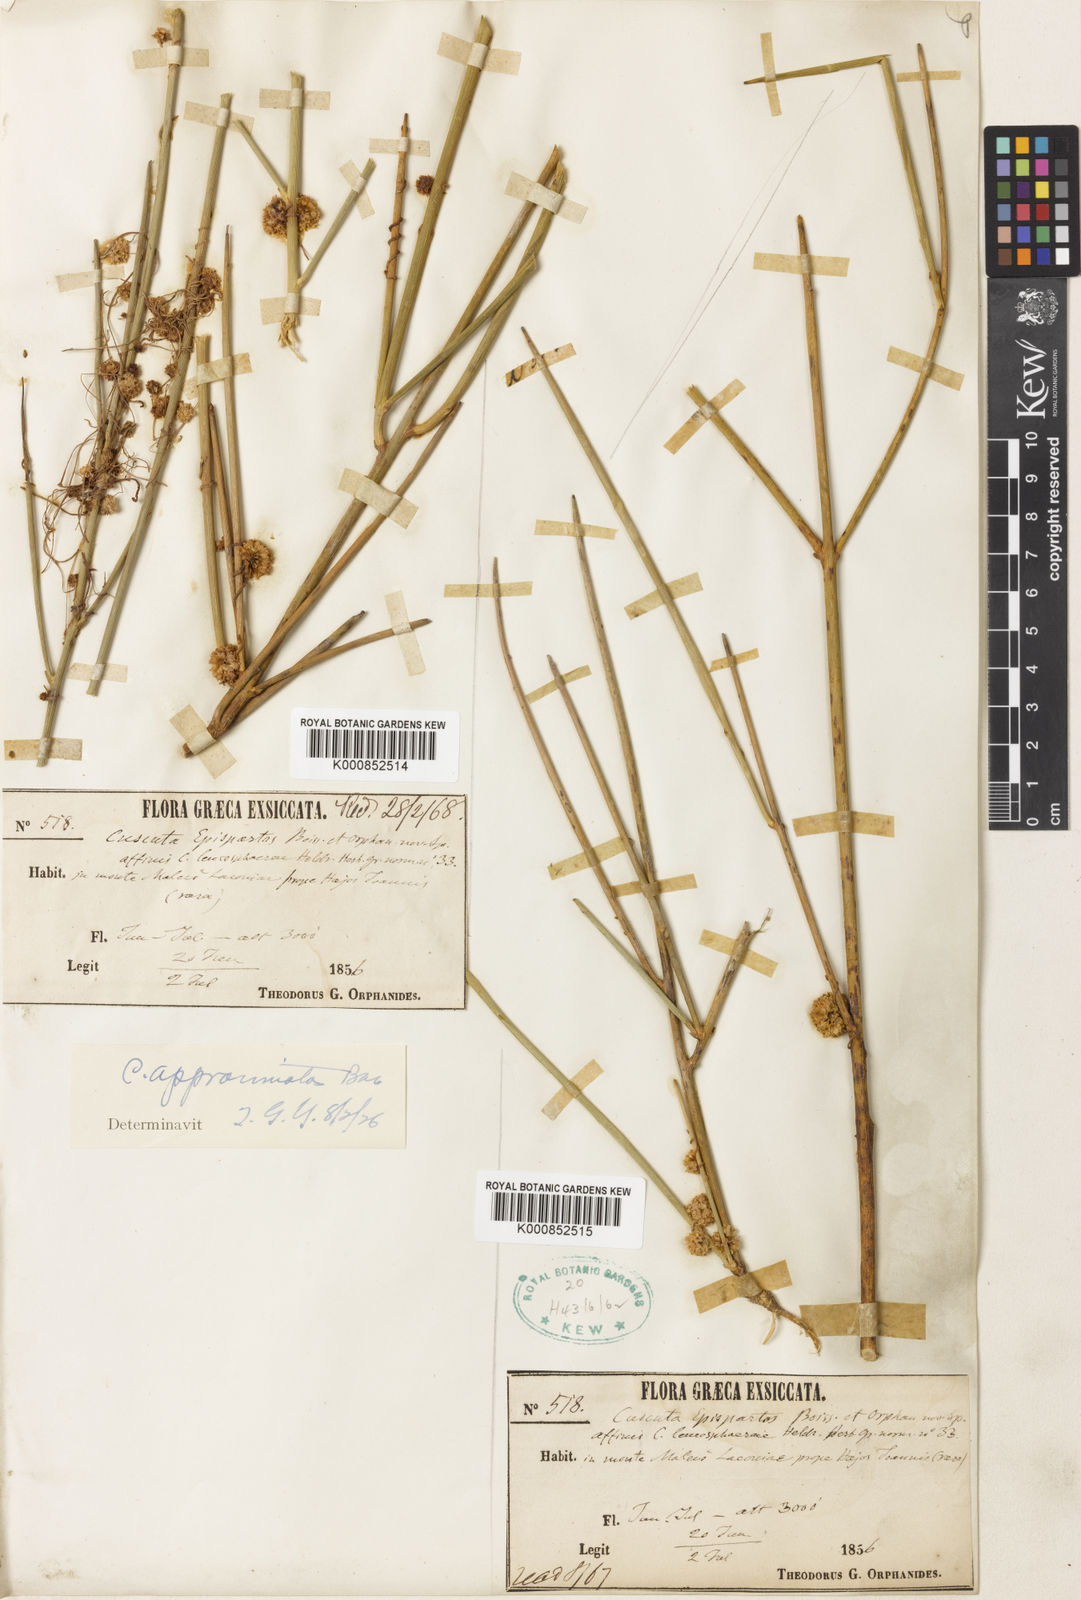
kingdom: Plantae
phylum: Tracheophyta
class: Magnoliopsida
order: Solanales
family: Convolvulaceae
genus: Cuscuta
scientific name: Cuscuta approximata
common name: Alfalfa dodder
